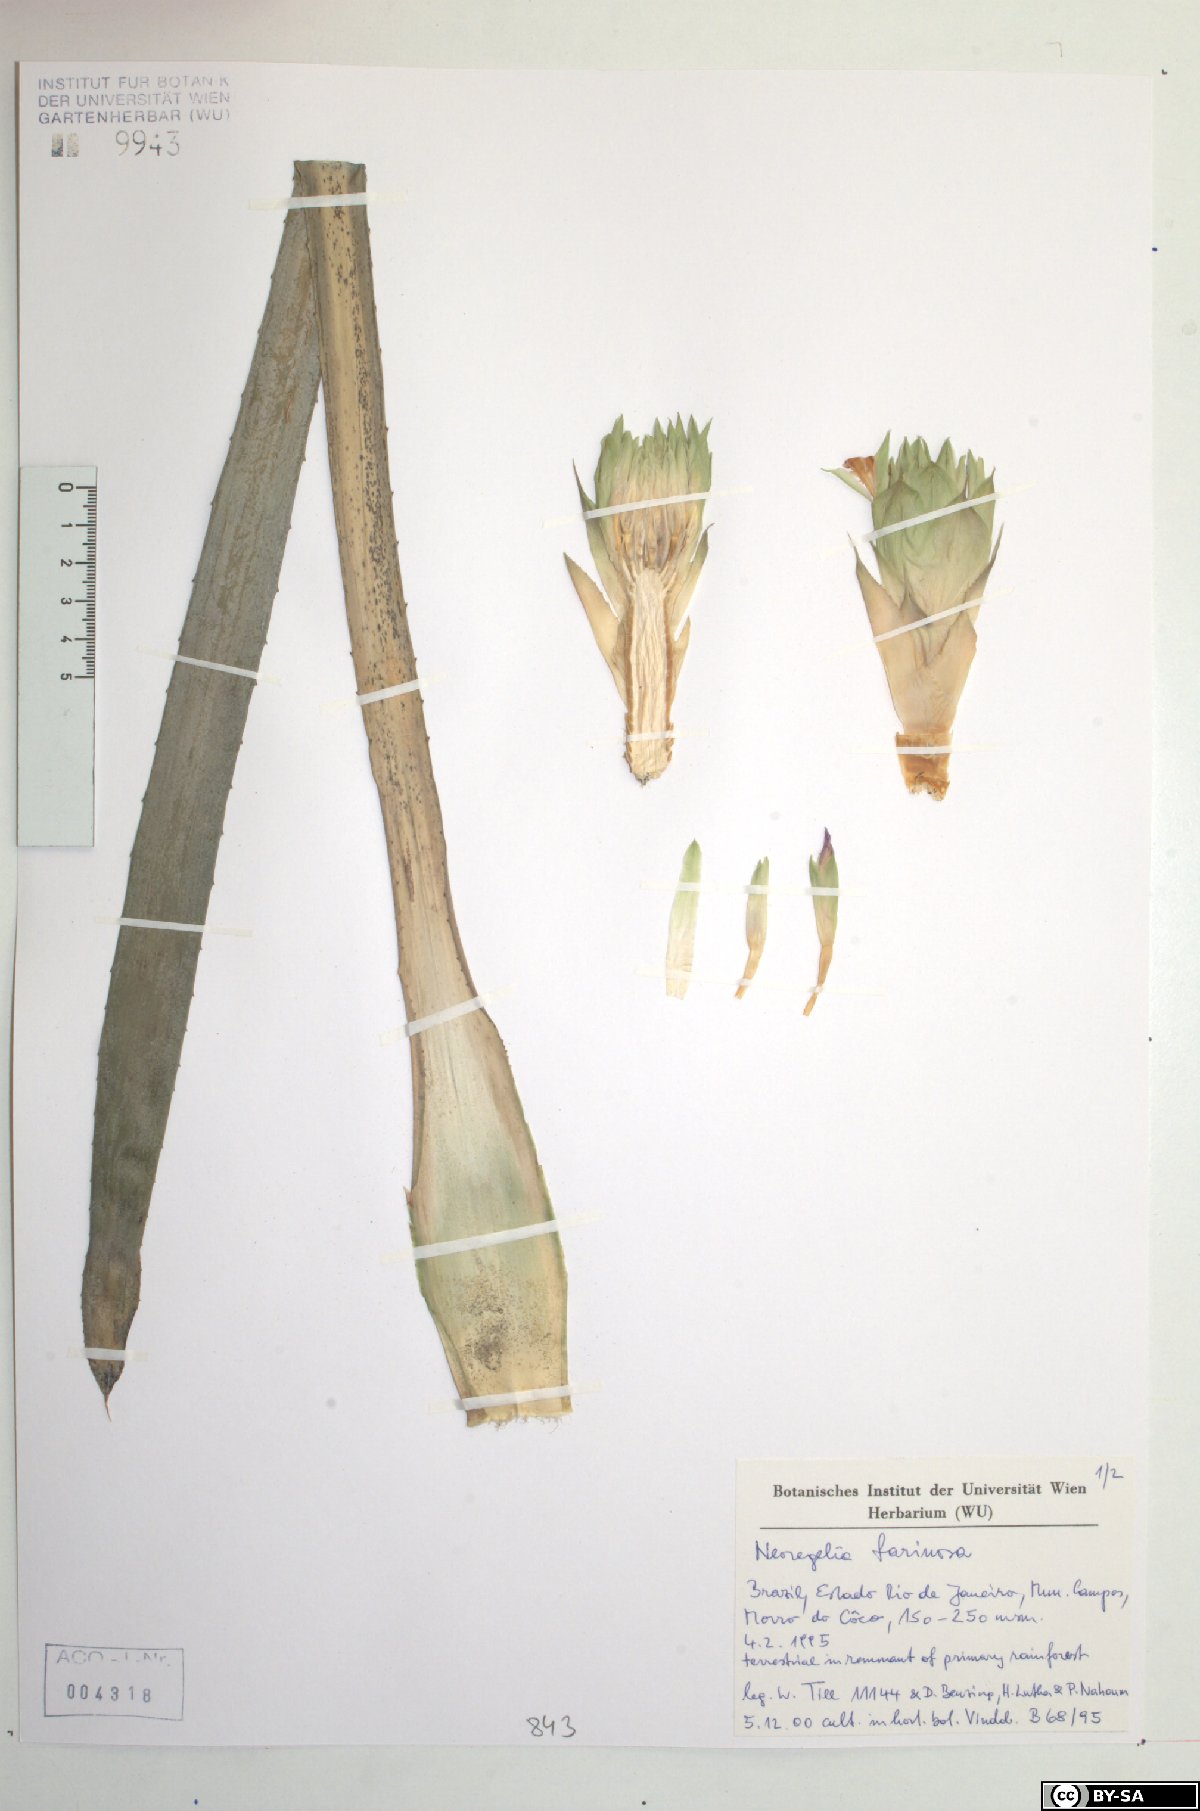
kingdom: Plantae
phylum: Tracheophyta
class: Liliopsida
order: Poales
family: Bromeliaceae
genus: Neoregelia
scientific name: Neoregelia farinosa
